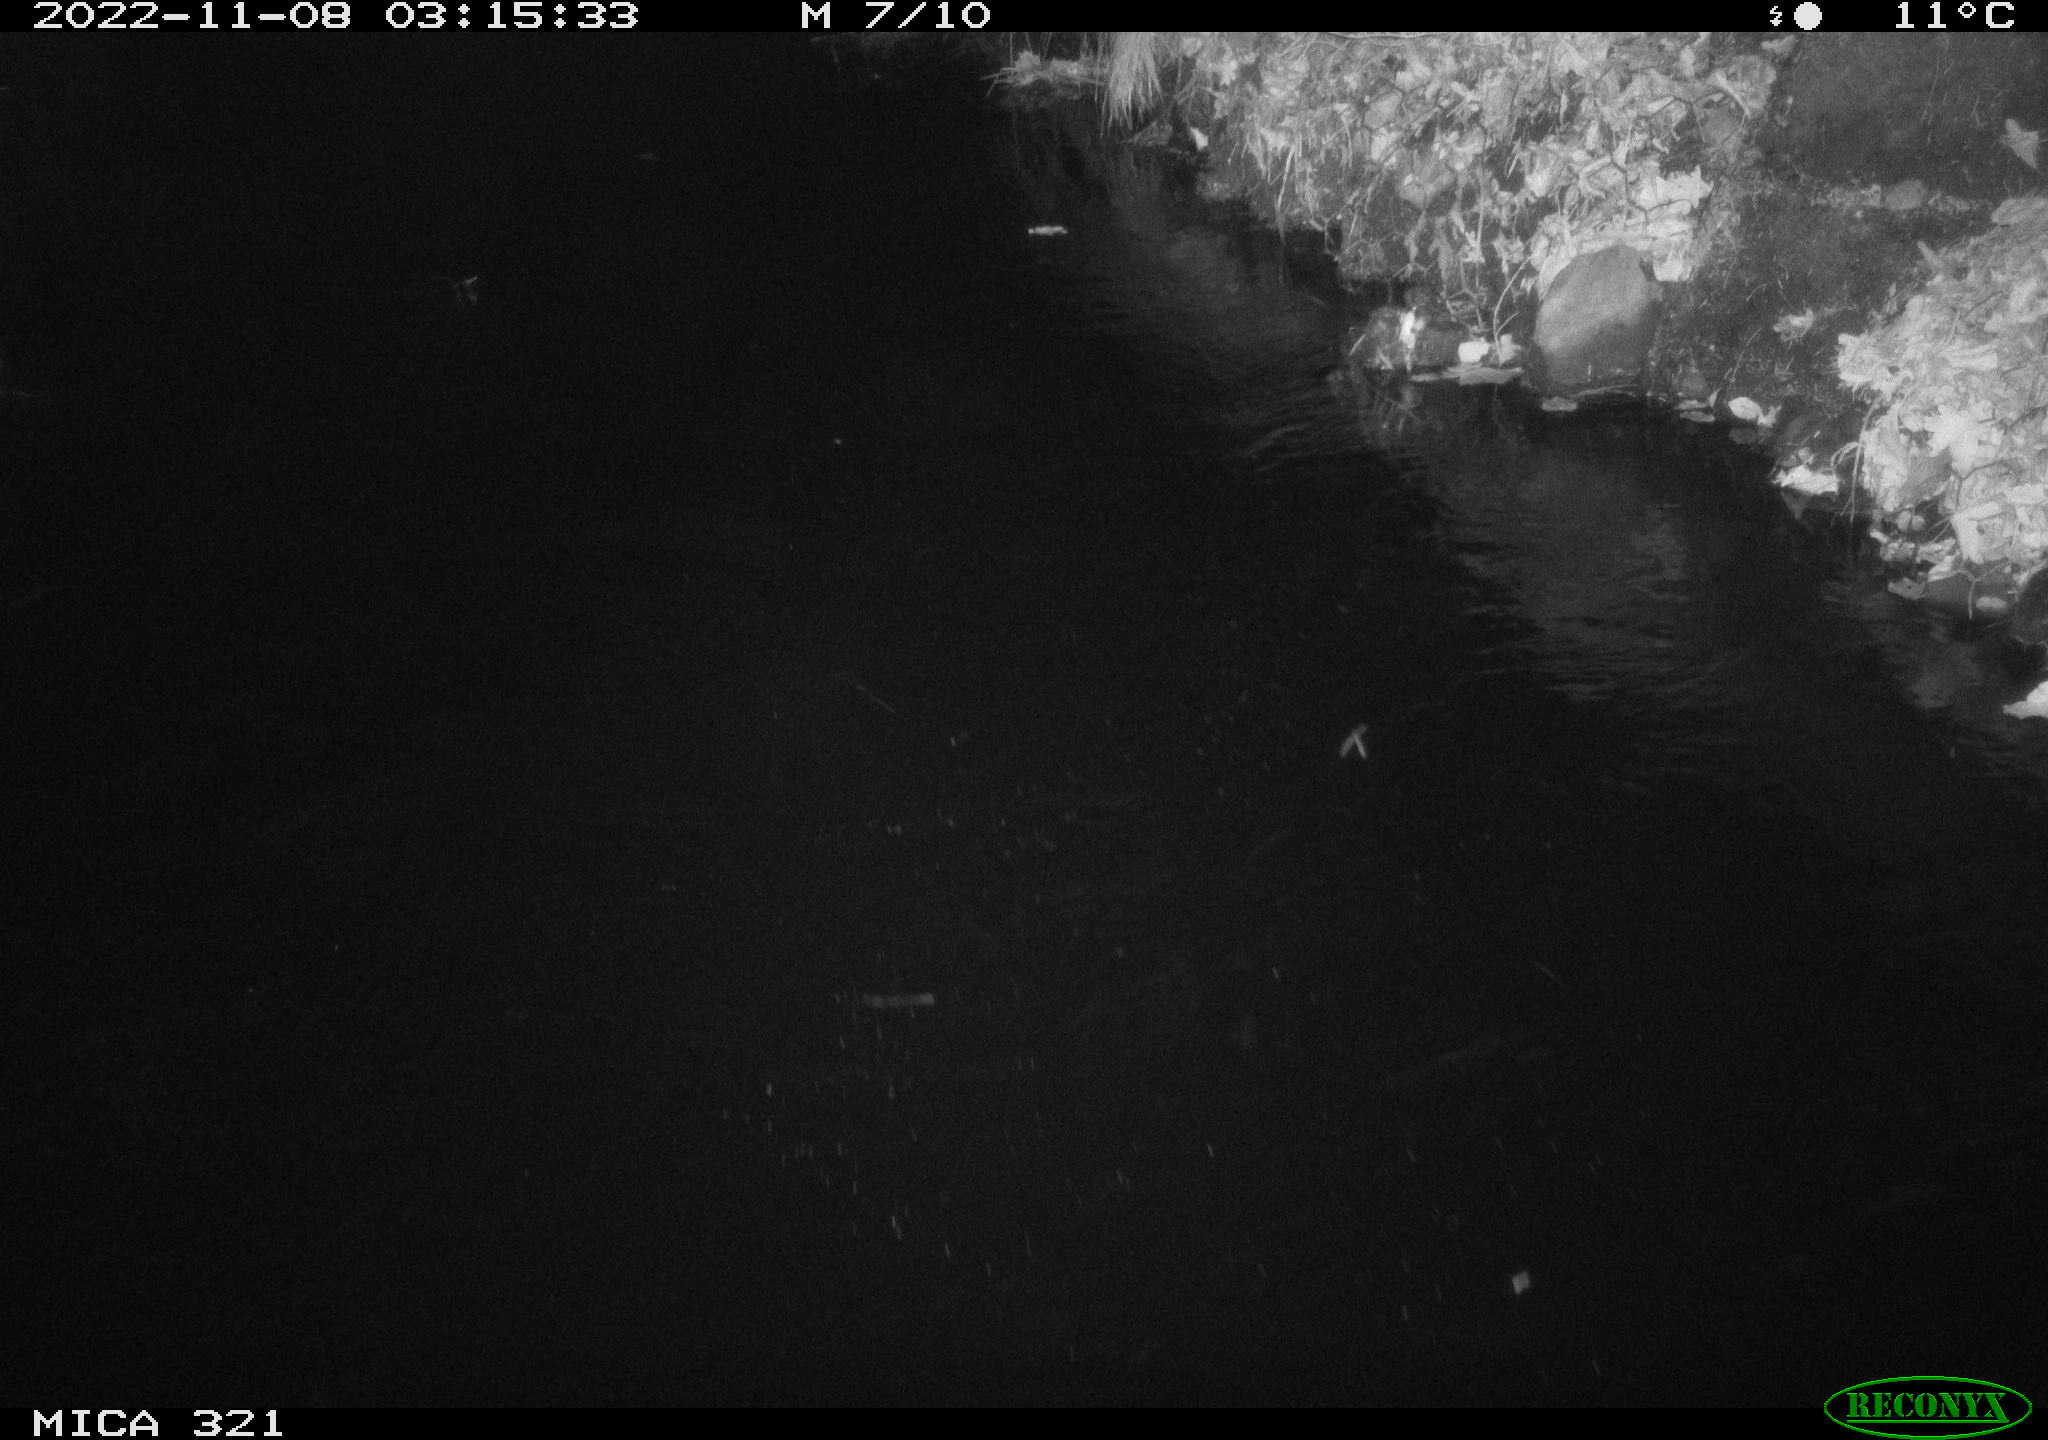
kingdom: Animalia
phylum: Chordata
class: Mammalia
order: Rodentia
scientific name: Rodentia
